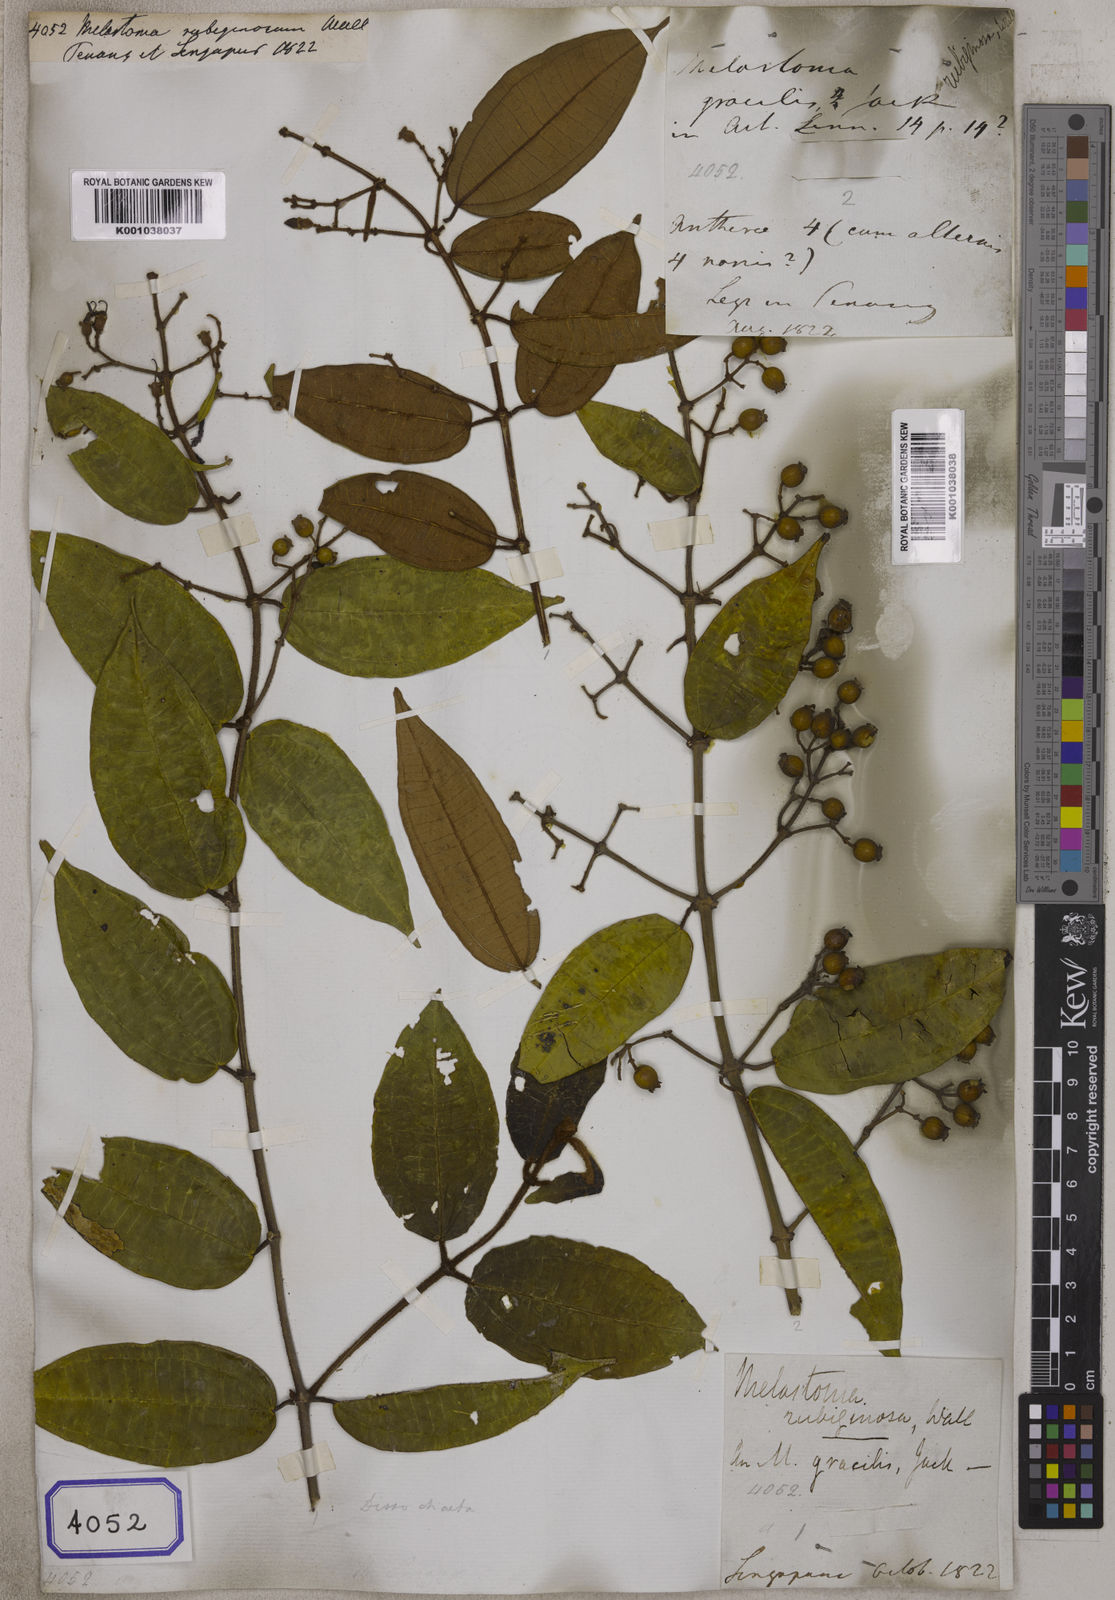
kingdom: Plantae
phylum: Tracheophyta
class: Magnoliopsida
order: Myrtales
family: Melastomataceae
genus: Melastoma
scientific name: Melastoma
